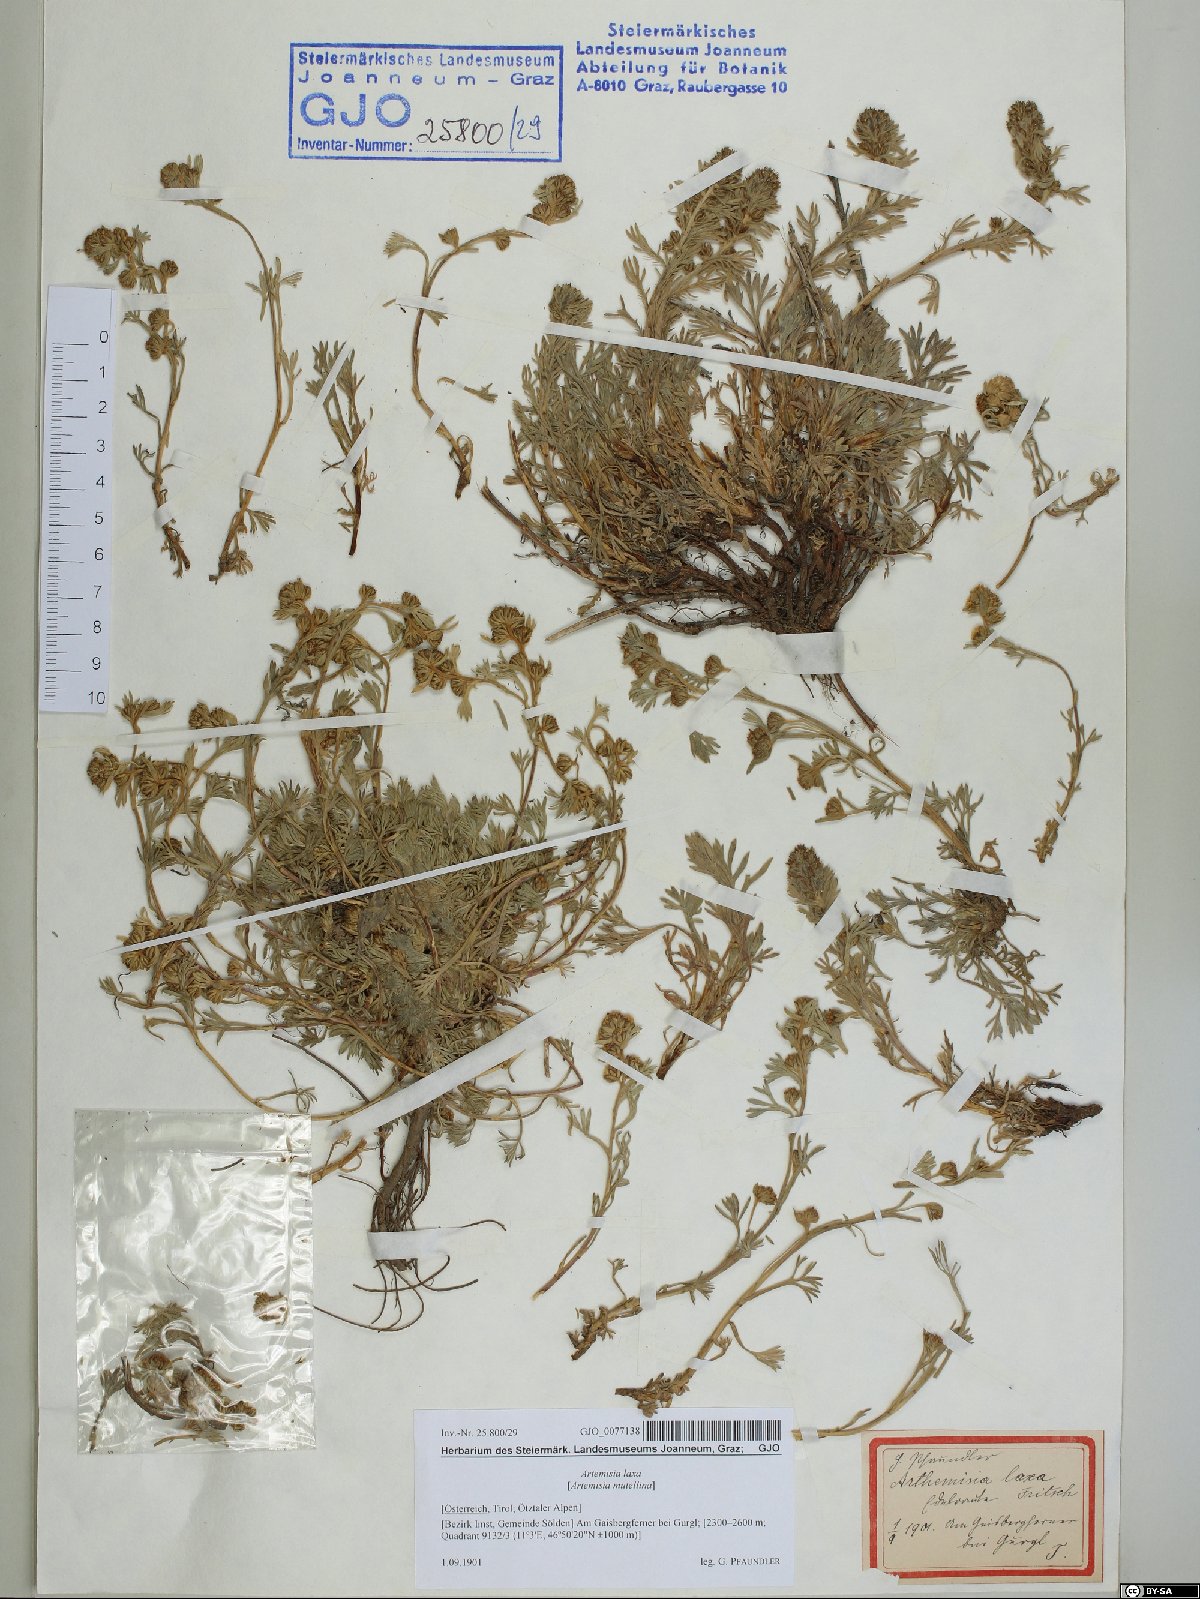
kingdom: Plantae
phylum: Tracheophyta
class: Magnoliopsida
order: Asterales
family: Asteraceae
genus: Artemisia
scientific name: Artemisia mutellina
